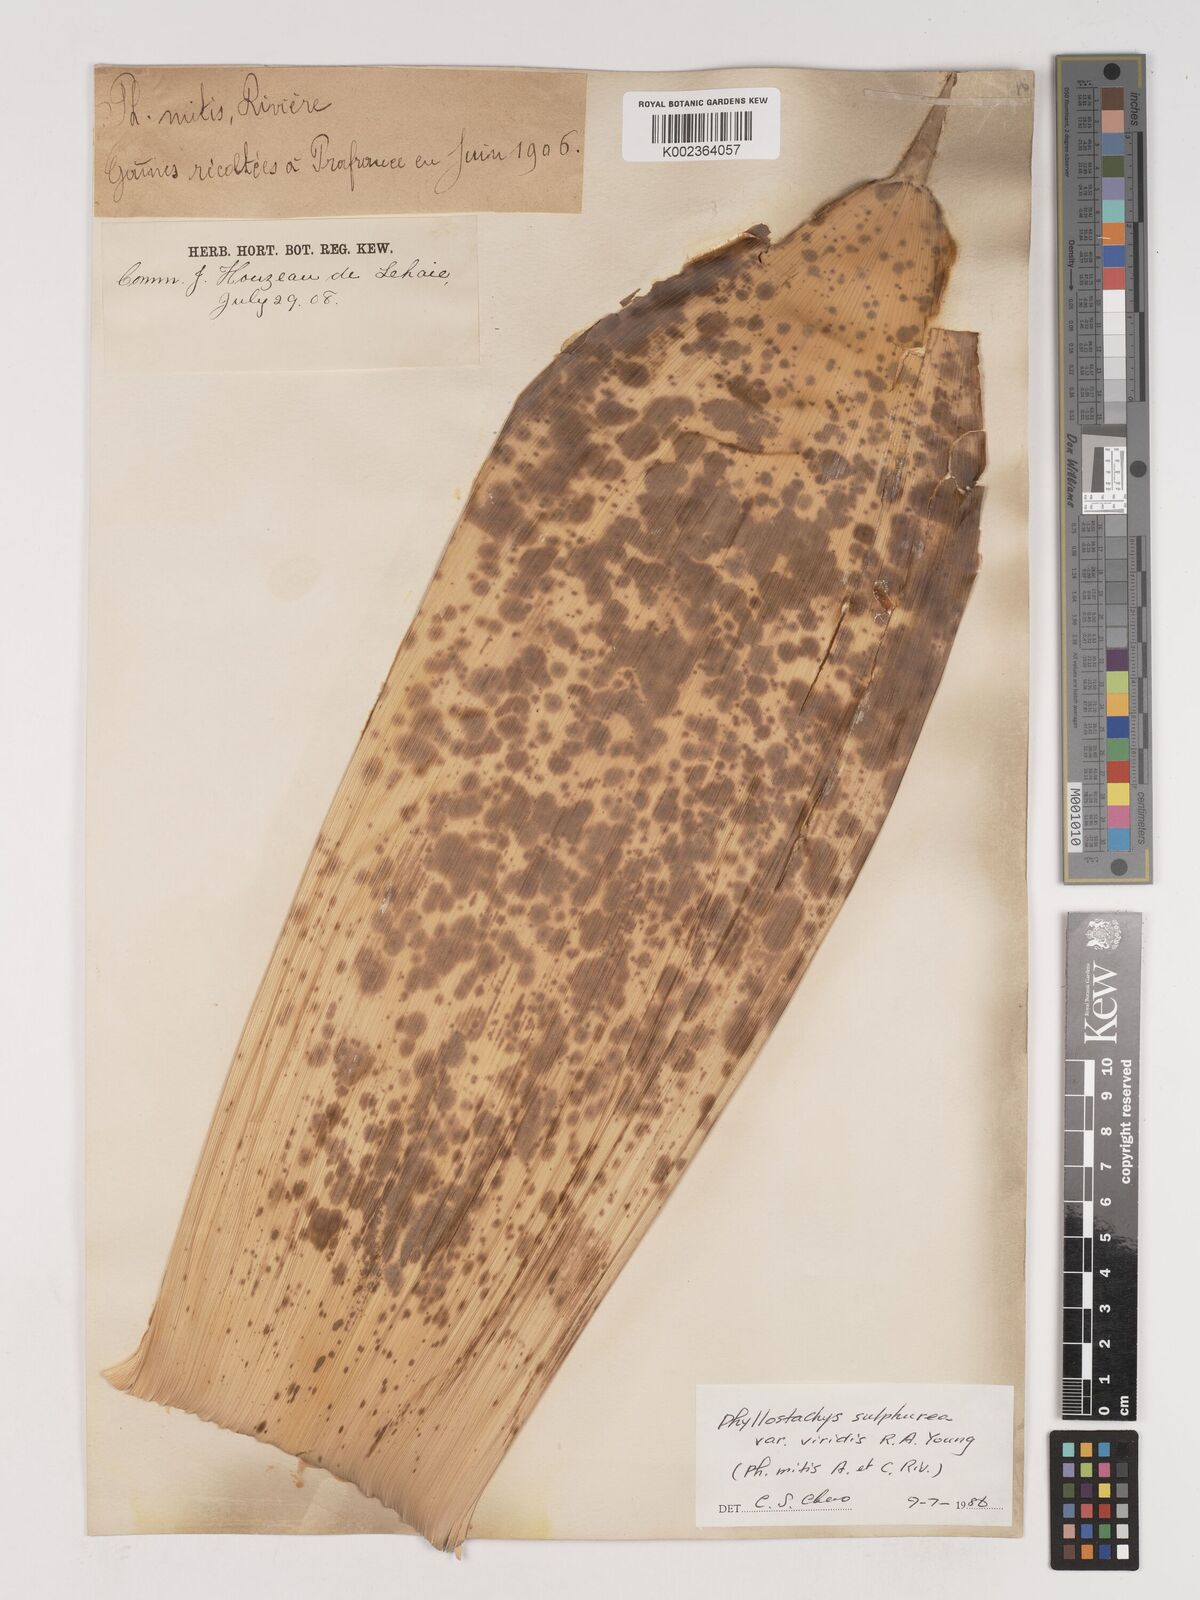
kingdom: Plantae
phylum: Tracheophyta
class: Liliopsida
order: Poales
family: Poaceae
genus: Phyllostachys
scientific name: Phyllostachys sulphurea
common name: Sulphur bamboo
